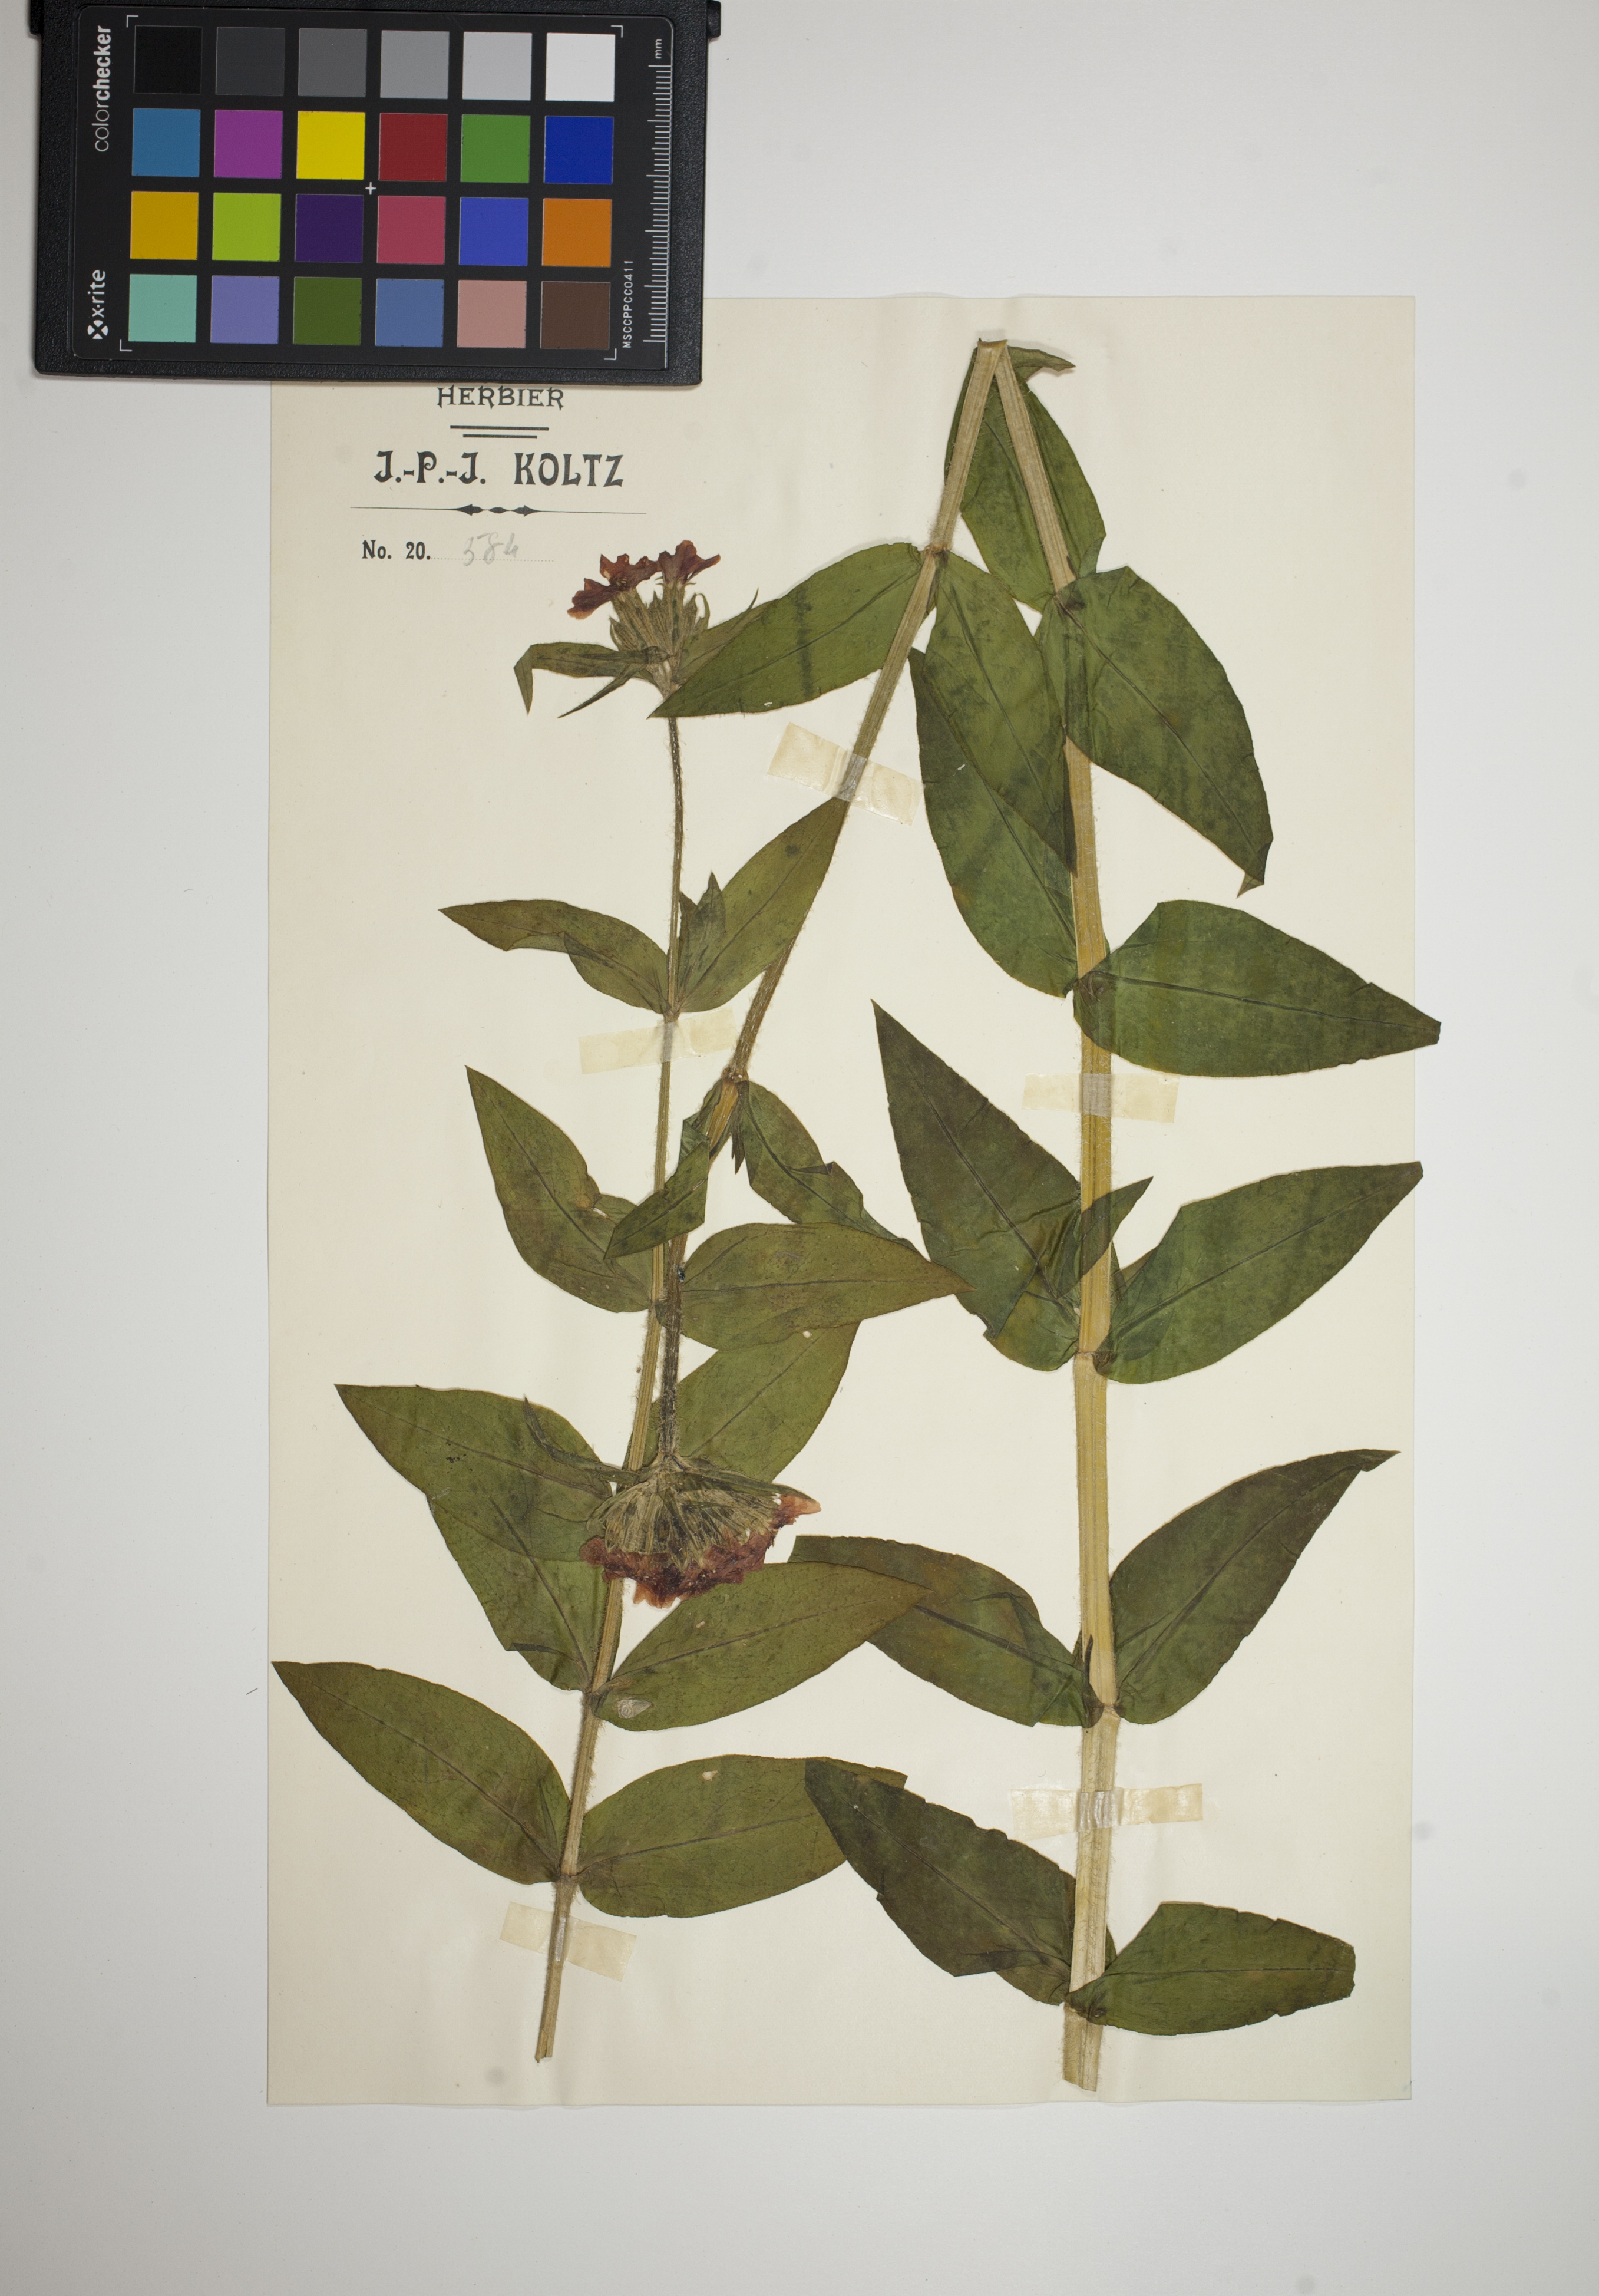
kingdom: Plantae
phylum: Tracheophyta
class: Magnoliopsida
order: Caryophyllales
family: Caryophyllaceae
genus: Silene
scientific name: Silene chalcedonica
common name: Maltese-cross
